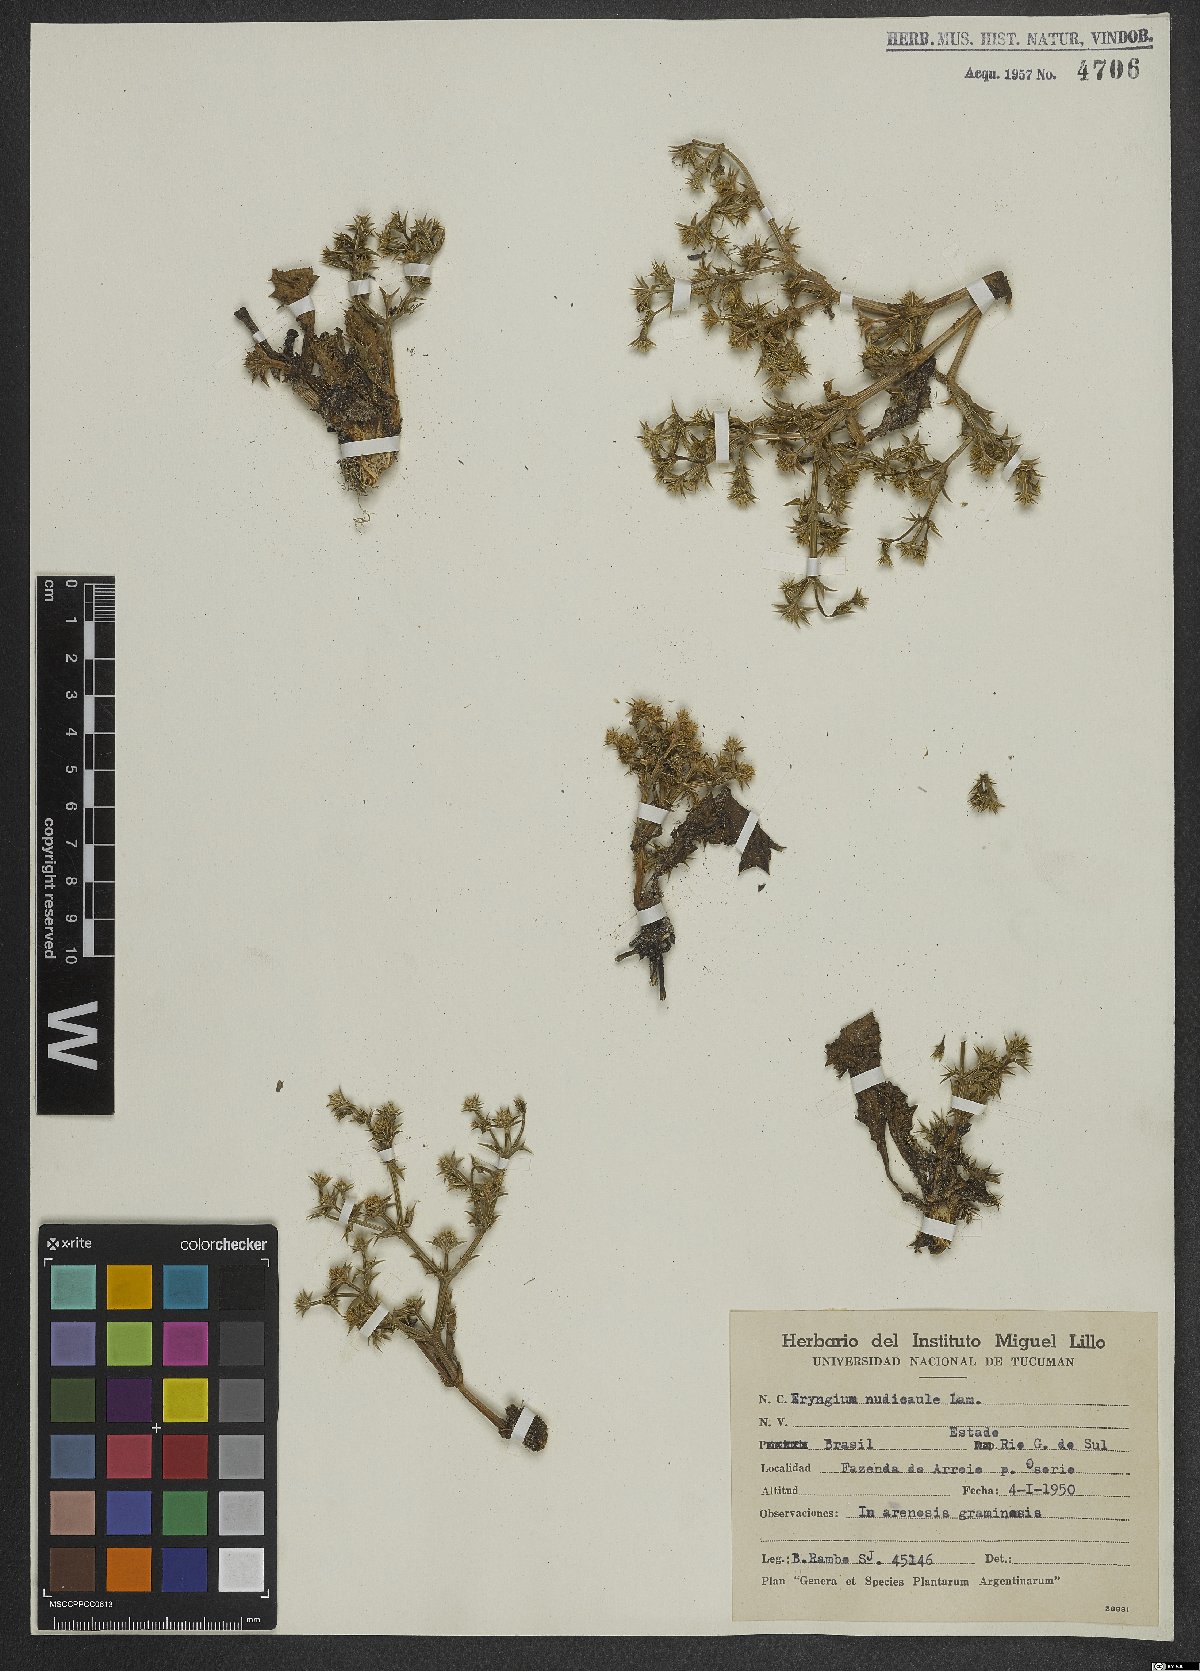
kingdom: Plantae
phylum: Tracheophyta
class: Magnoliopsida
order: Apiales
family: Apiaceae
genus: Eryngium
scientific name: Eryngium nudicaule
